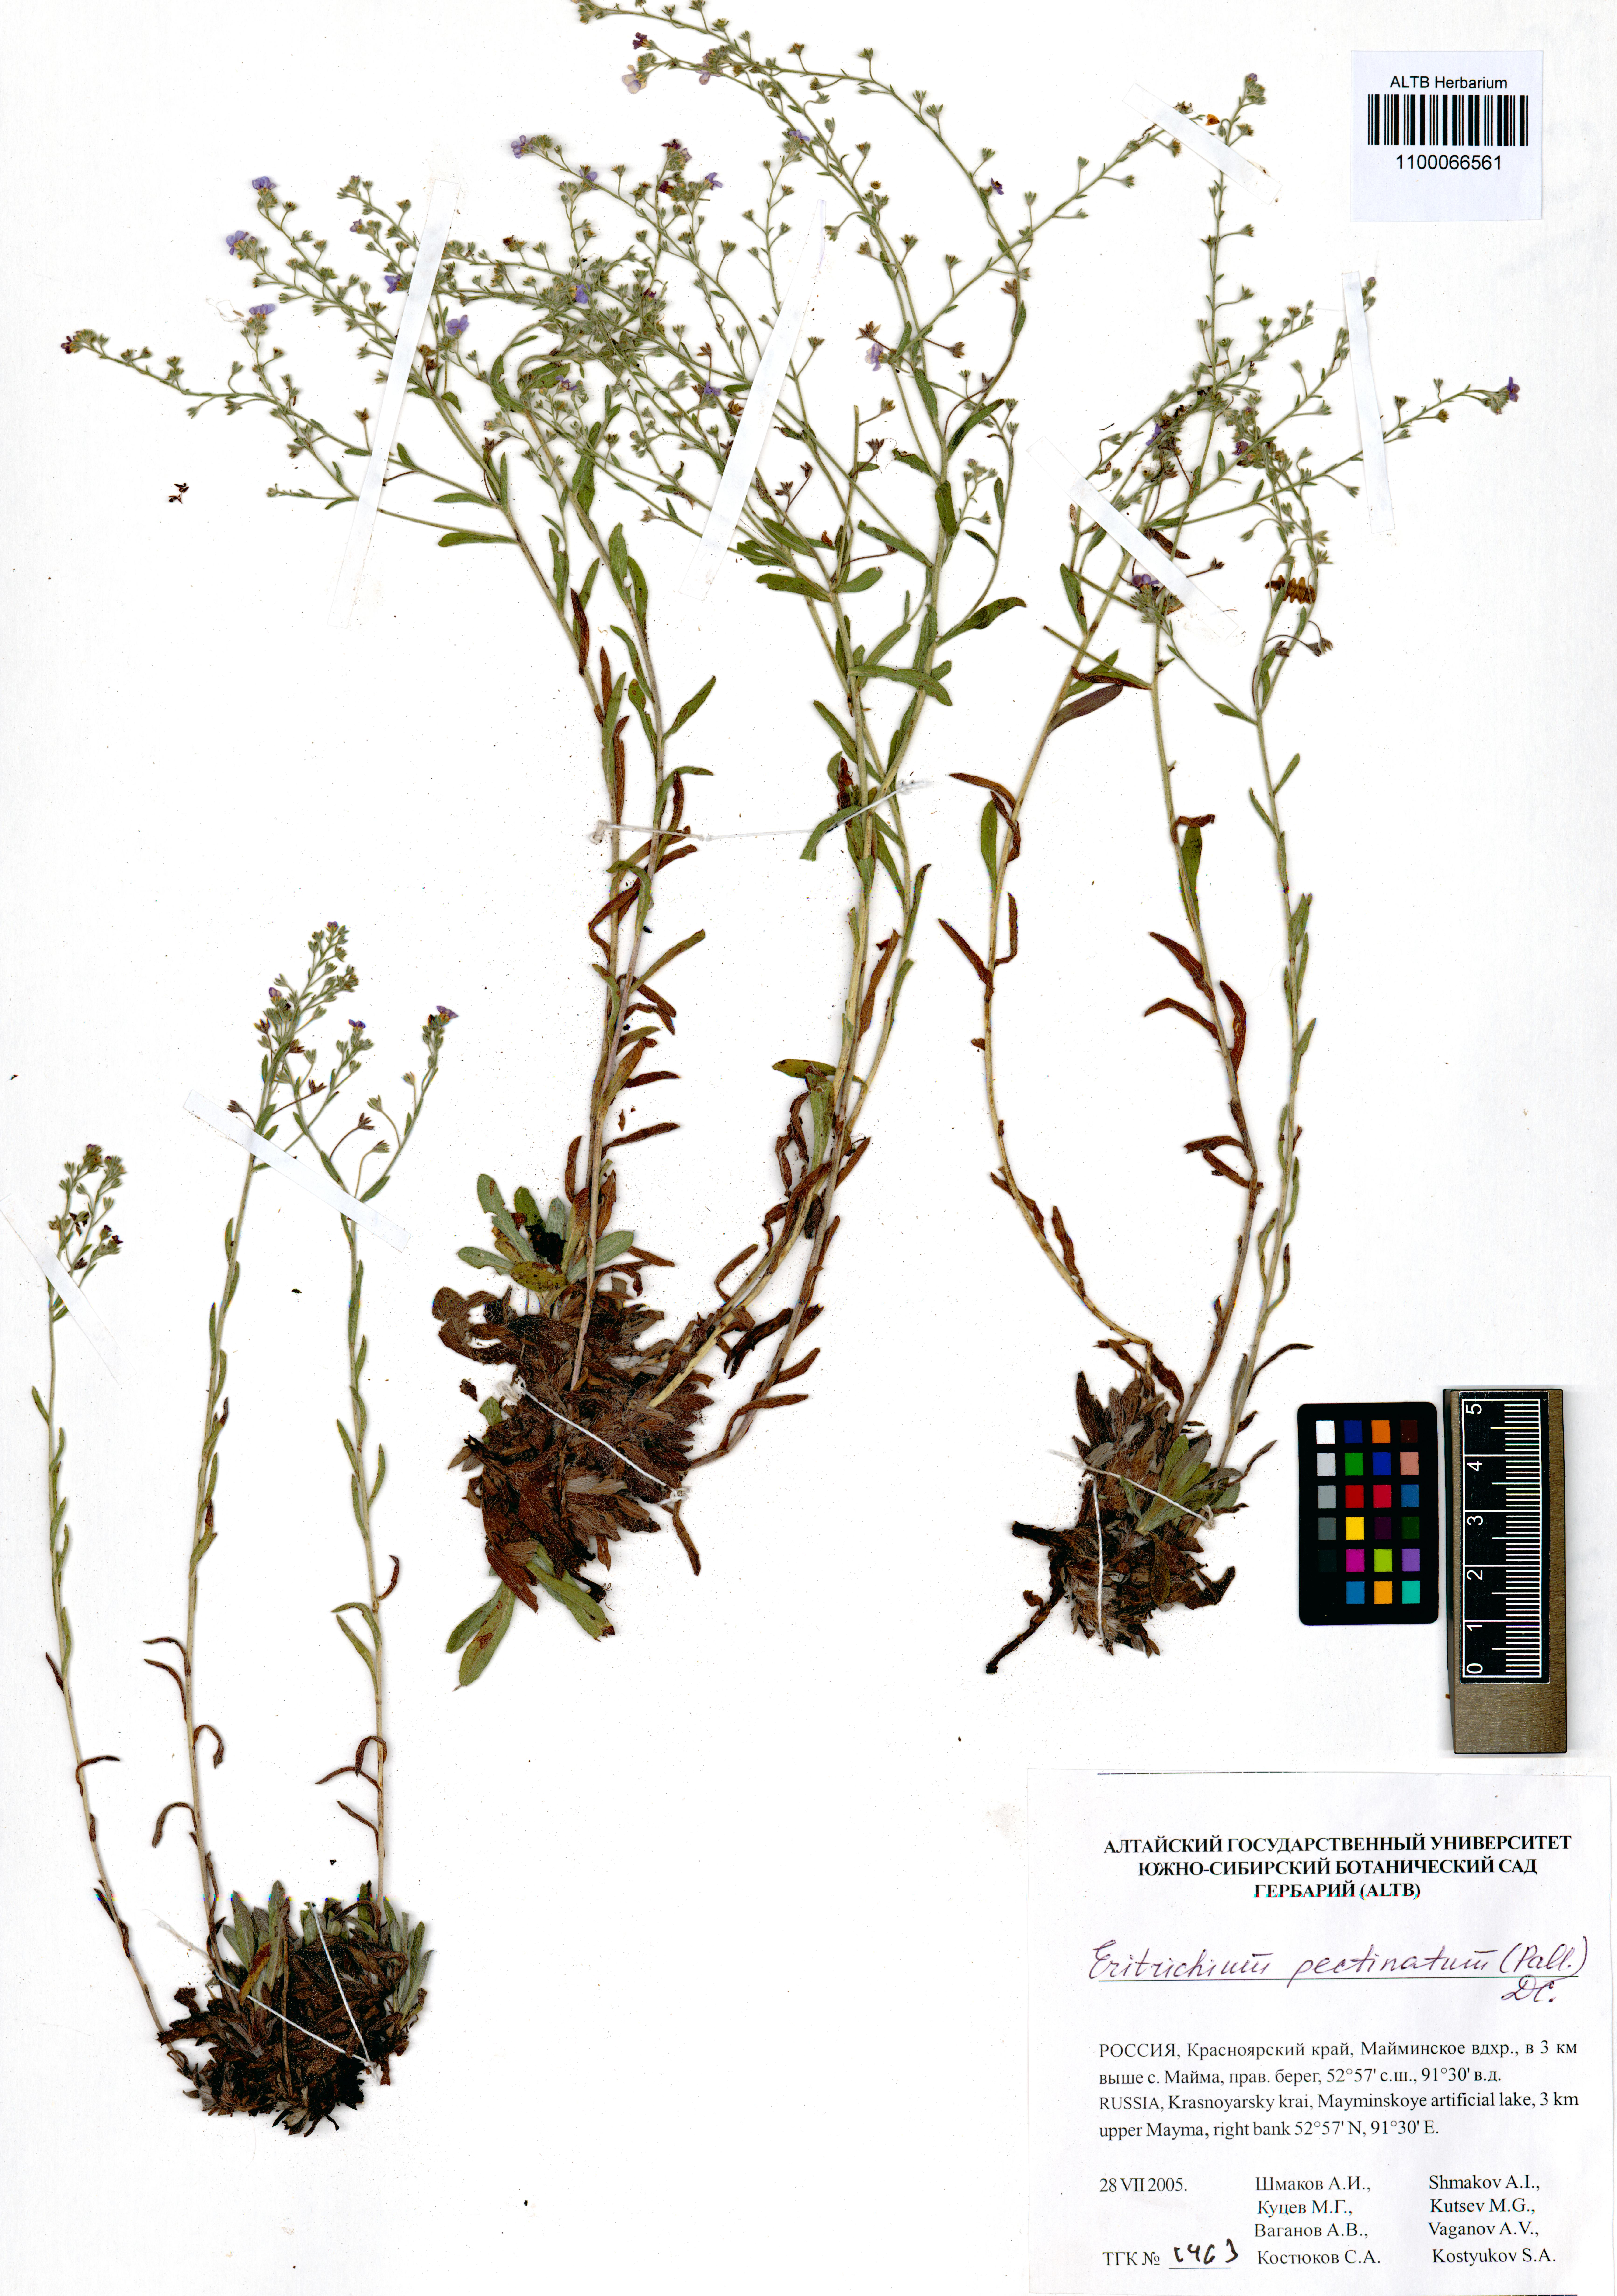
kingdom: Plantae
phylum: Tracheophyta
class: Magnoliopsida
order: Boraginales
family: Boraginaceae
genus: Eritrichium
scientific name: Eritrichium pectinatum
